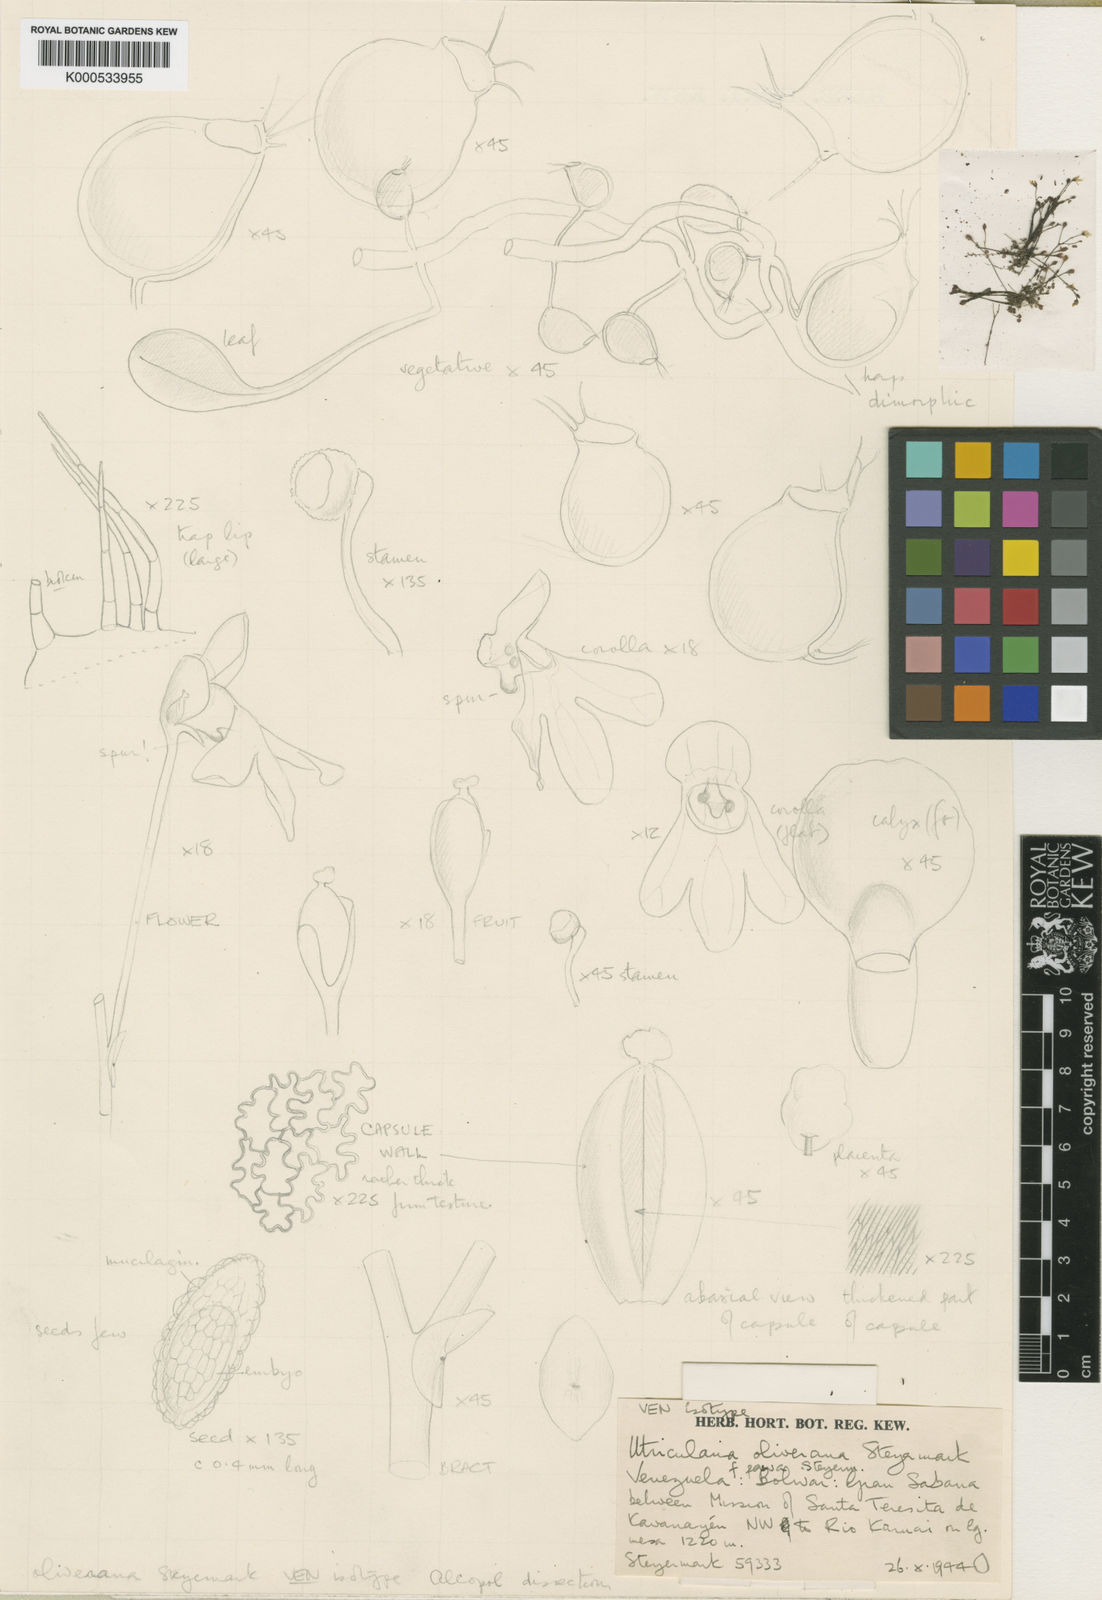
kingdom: Plantae
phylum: Tracheophyta
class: Magnoliopsida
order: Lamiales
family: Lentibulariaceae
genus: Utricularia
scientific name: Utricularia oliveriana
